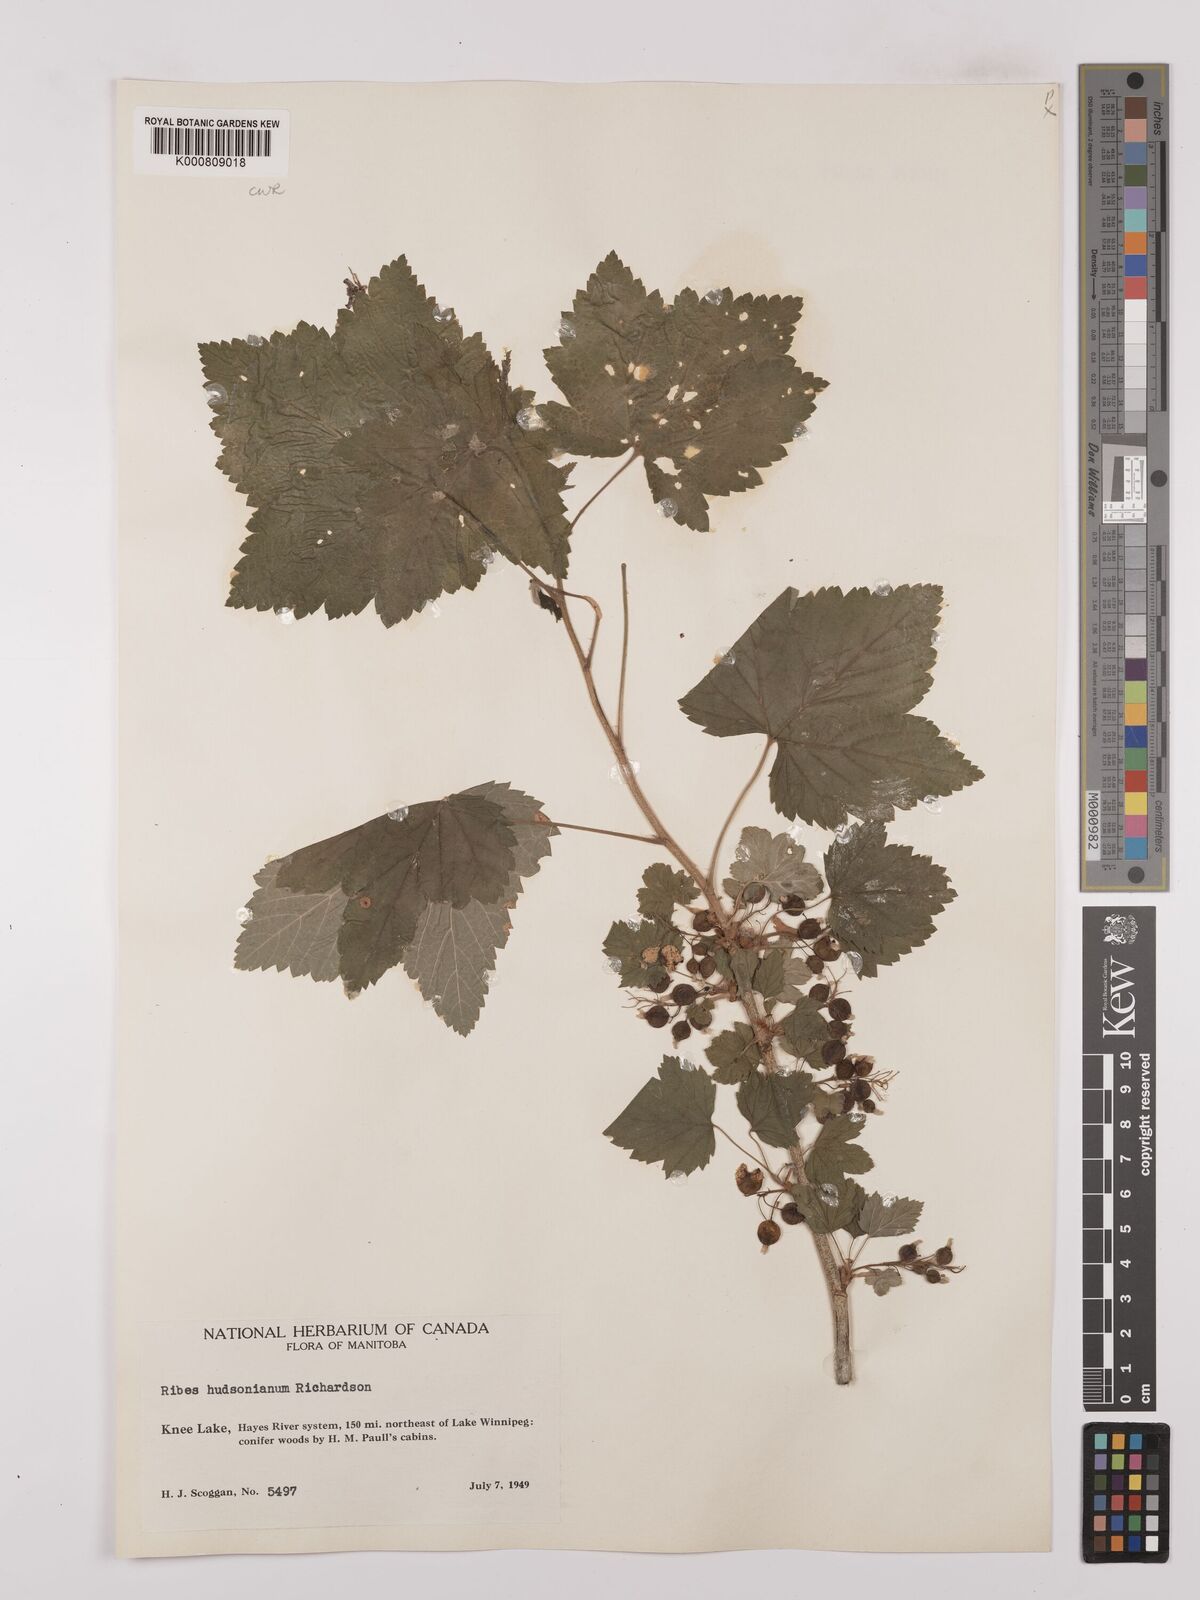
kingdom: Plantae
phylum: Tracheophyta
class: Magnoliopsida
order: Saxifragales
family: Grossulariaceae
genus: Ribes
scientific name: Ribes hudsonianum
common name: Northern black currant
